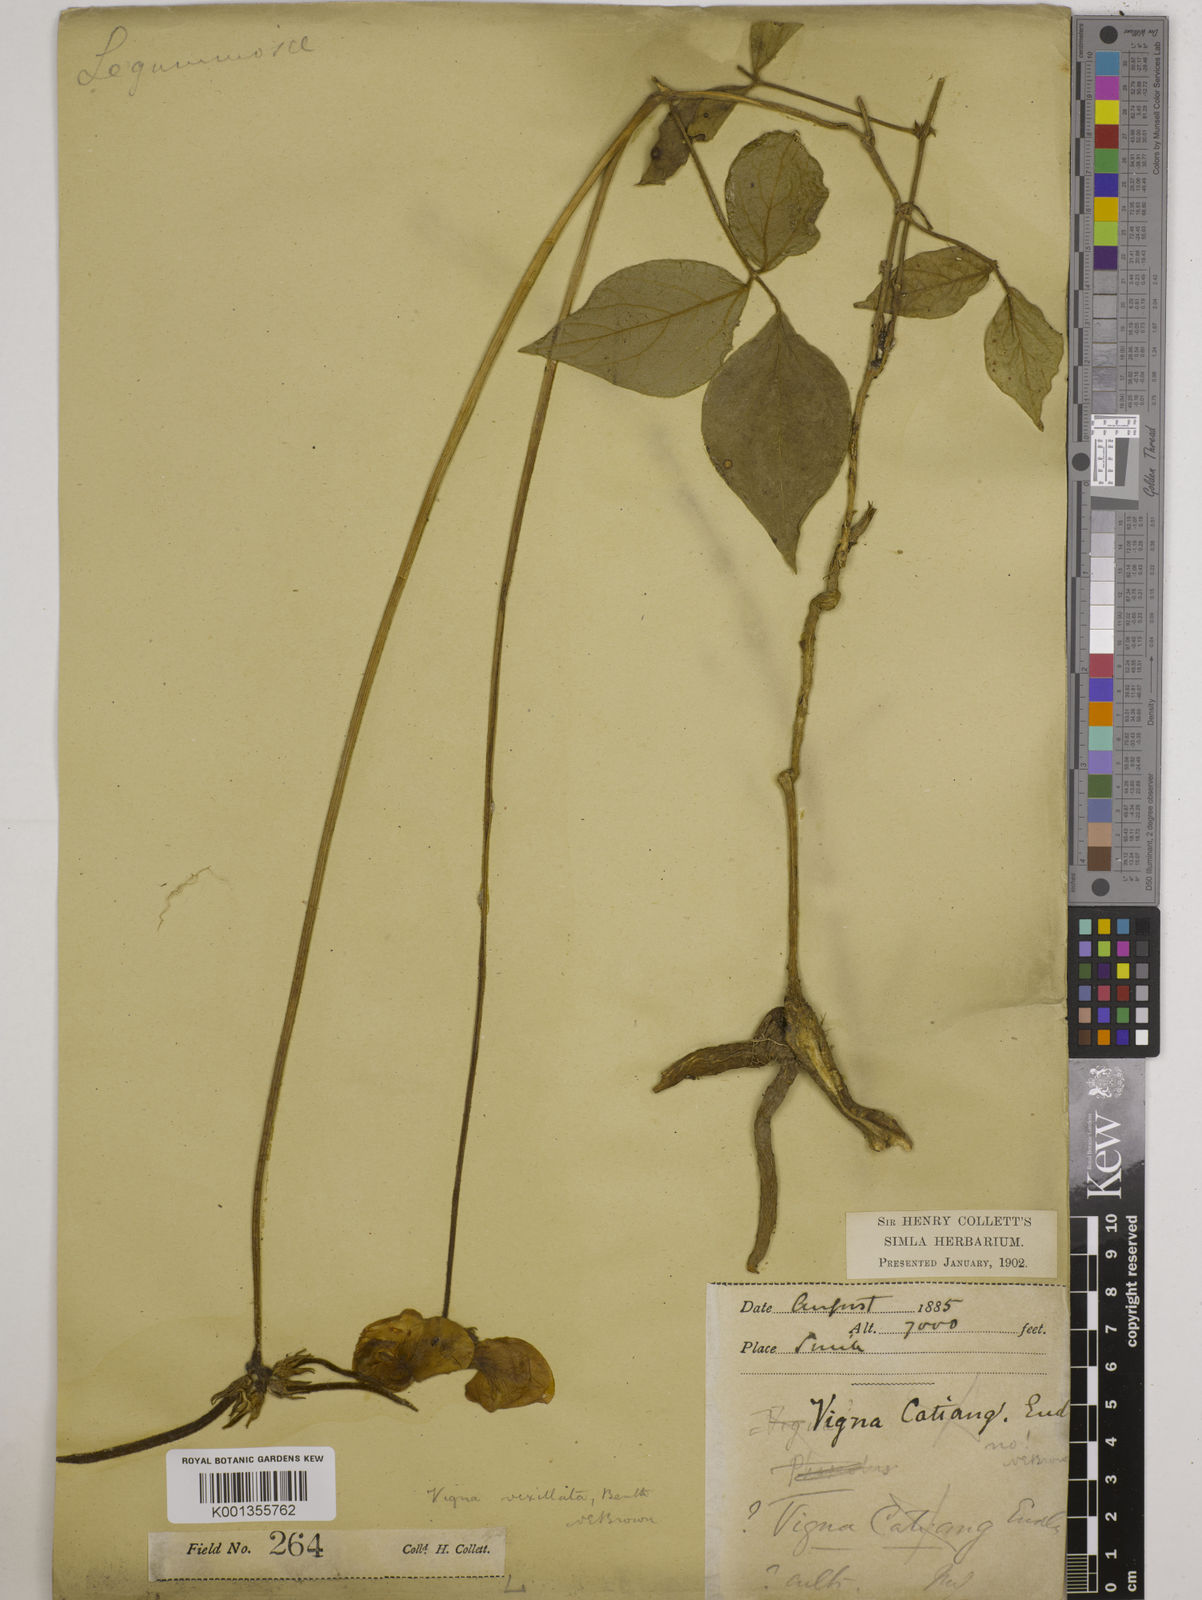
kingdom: Plantae
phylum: Tracheophyta
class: Magnoliopsida
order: Fabales
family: Fabaceae
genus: Vigna
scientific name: Vigna vexillata
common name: Zombi pea
